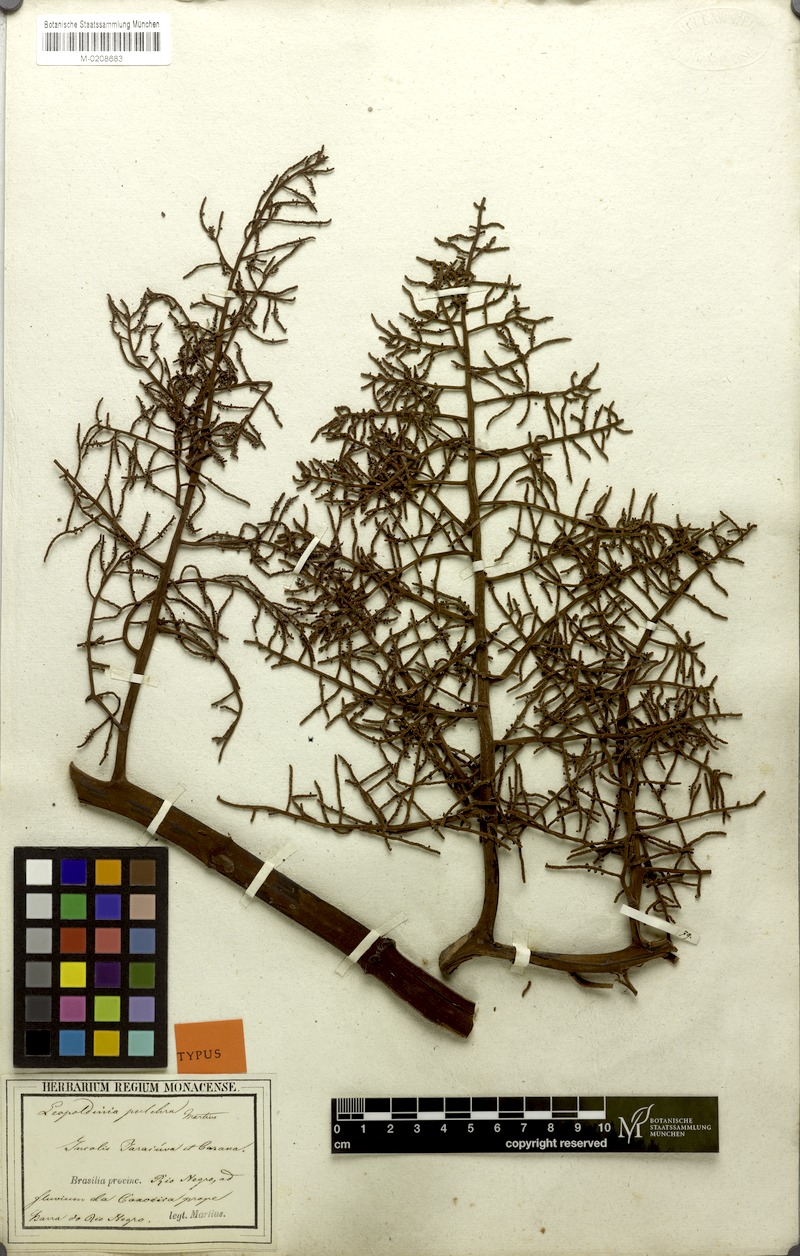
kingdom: Plantae
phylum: Tracheophyta
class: Liliopsida
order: Arecales
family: Arecaceae
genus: Leopoldinia
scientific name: Leopoldinia pulchra
